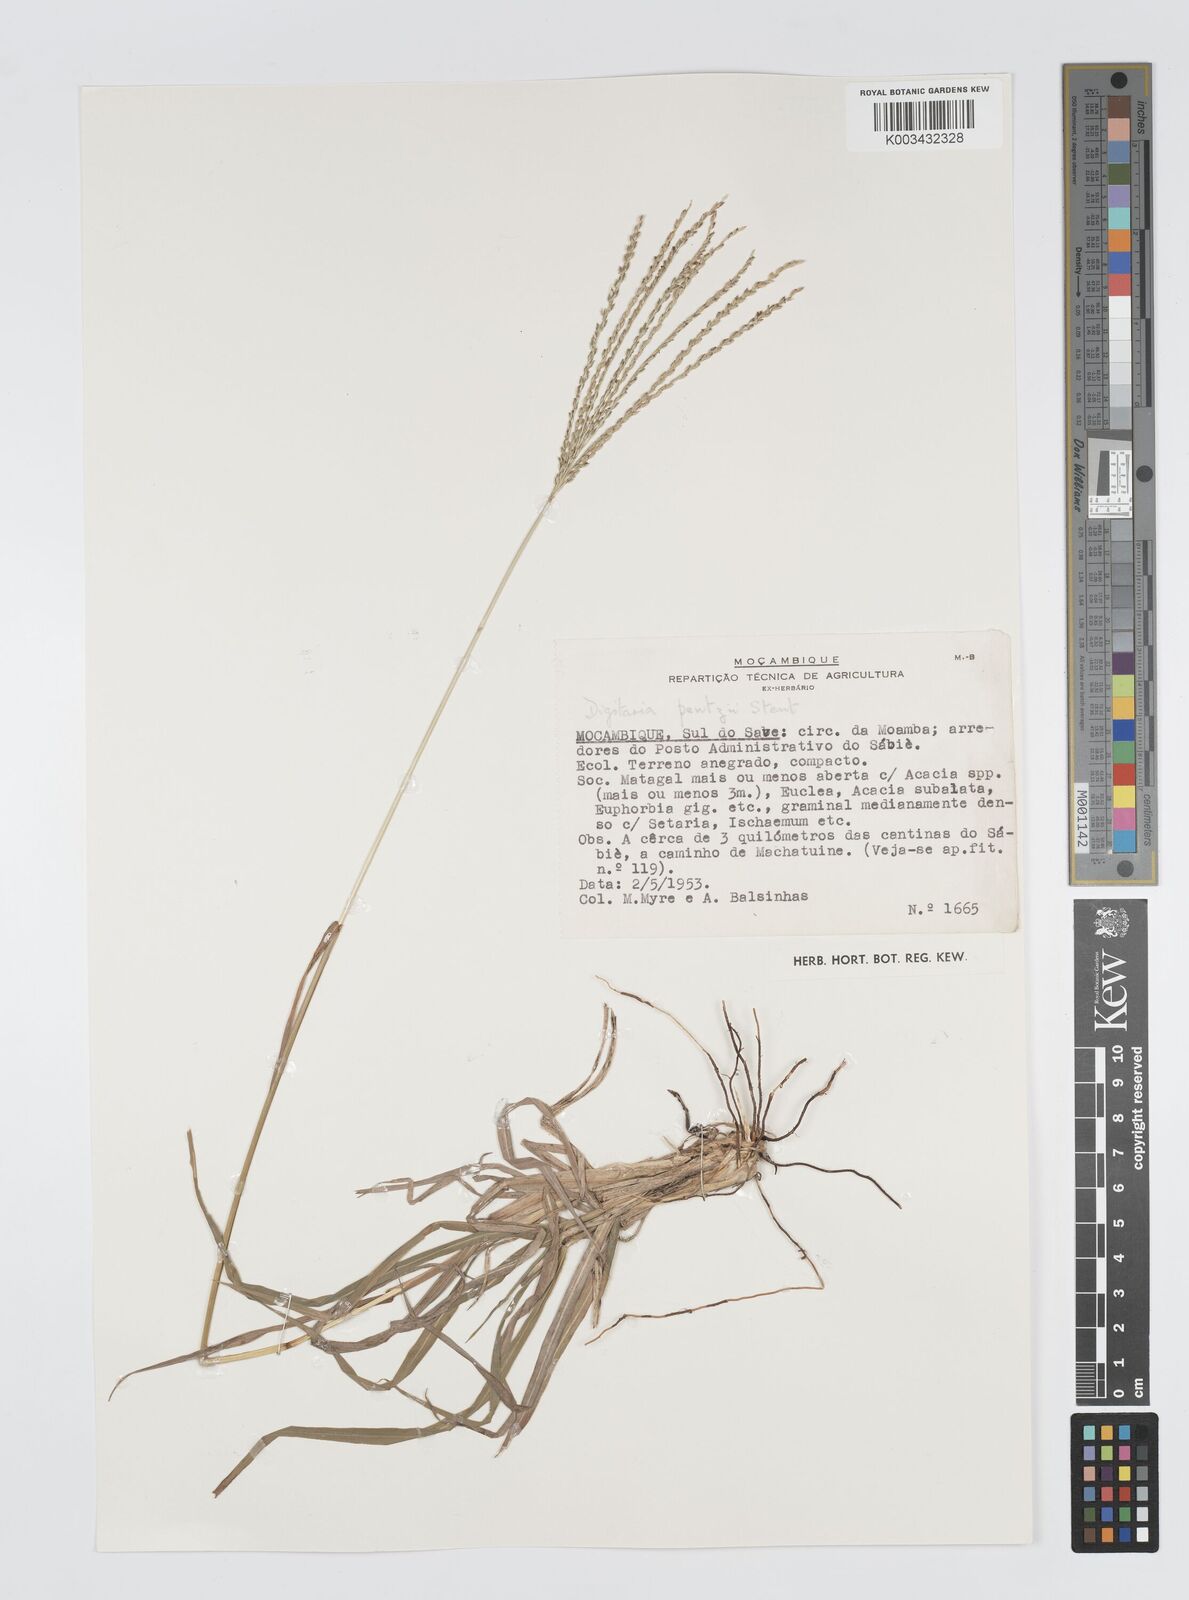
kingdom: Plantae
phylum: Tracheophyta
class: Liliopsida
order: Poales
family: Poaceae
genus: Digitaria
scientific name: Digitaria eriantha
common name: Digitgrass
